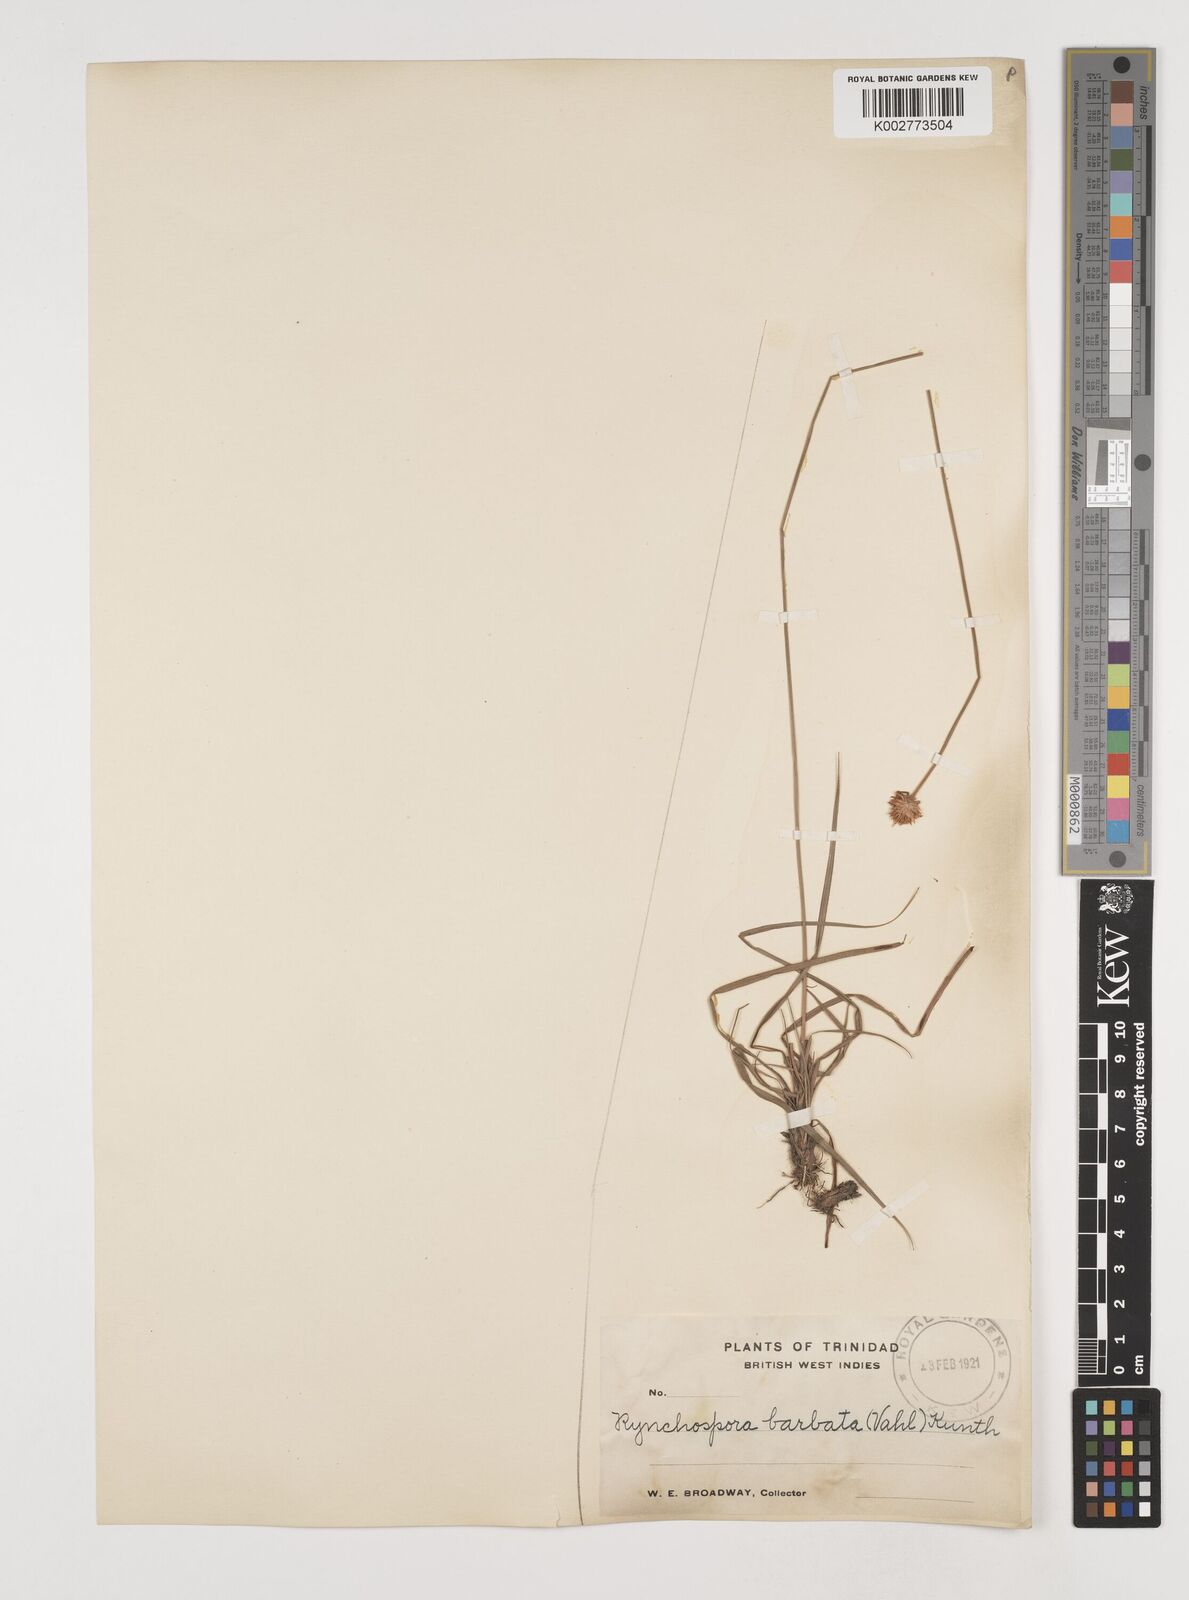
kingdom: Plantae
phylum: Tracheophyta
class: Liliopsida
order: Poales
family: Cyperaceae
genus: Rhynchospora
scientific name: Rhynchospora barbata
